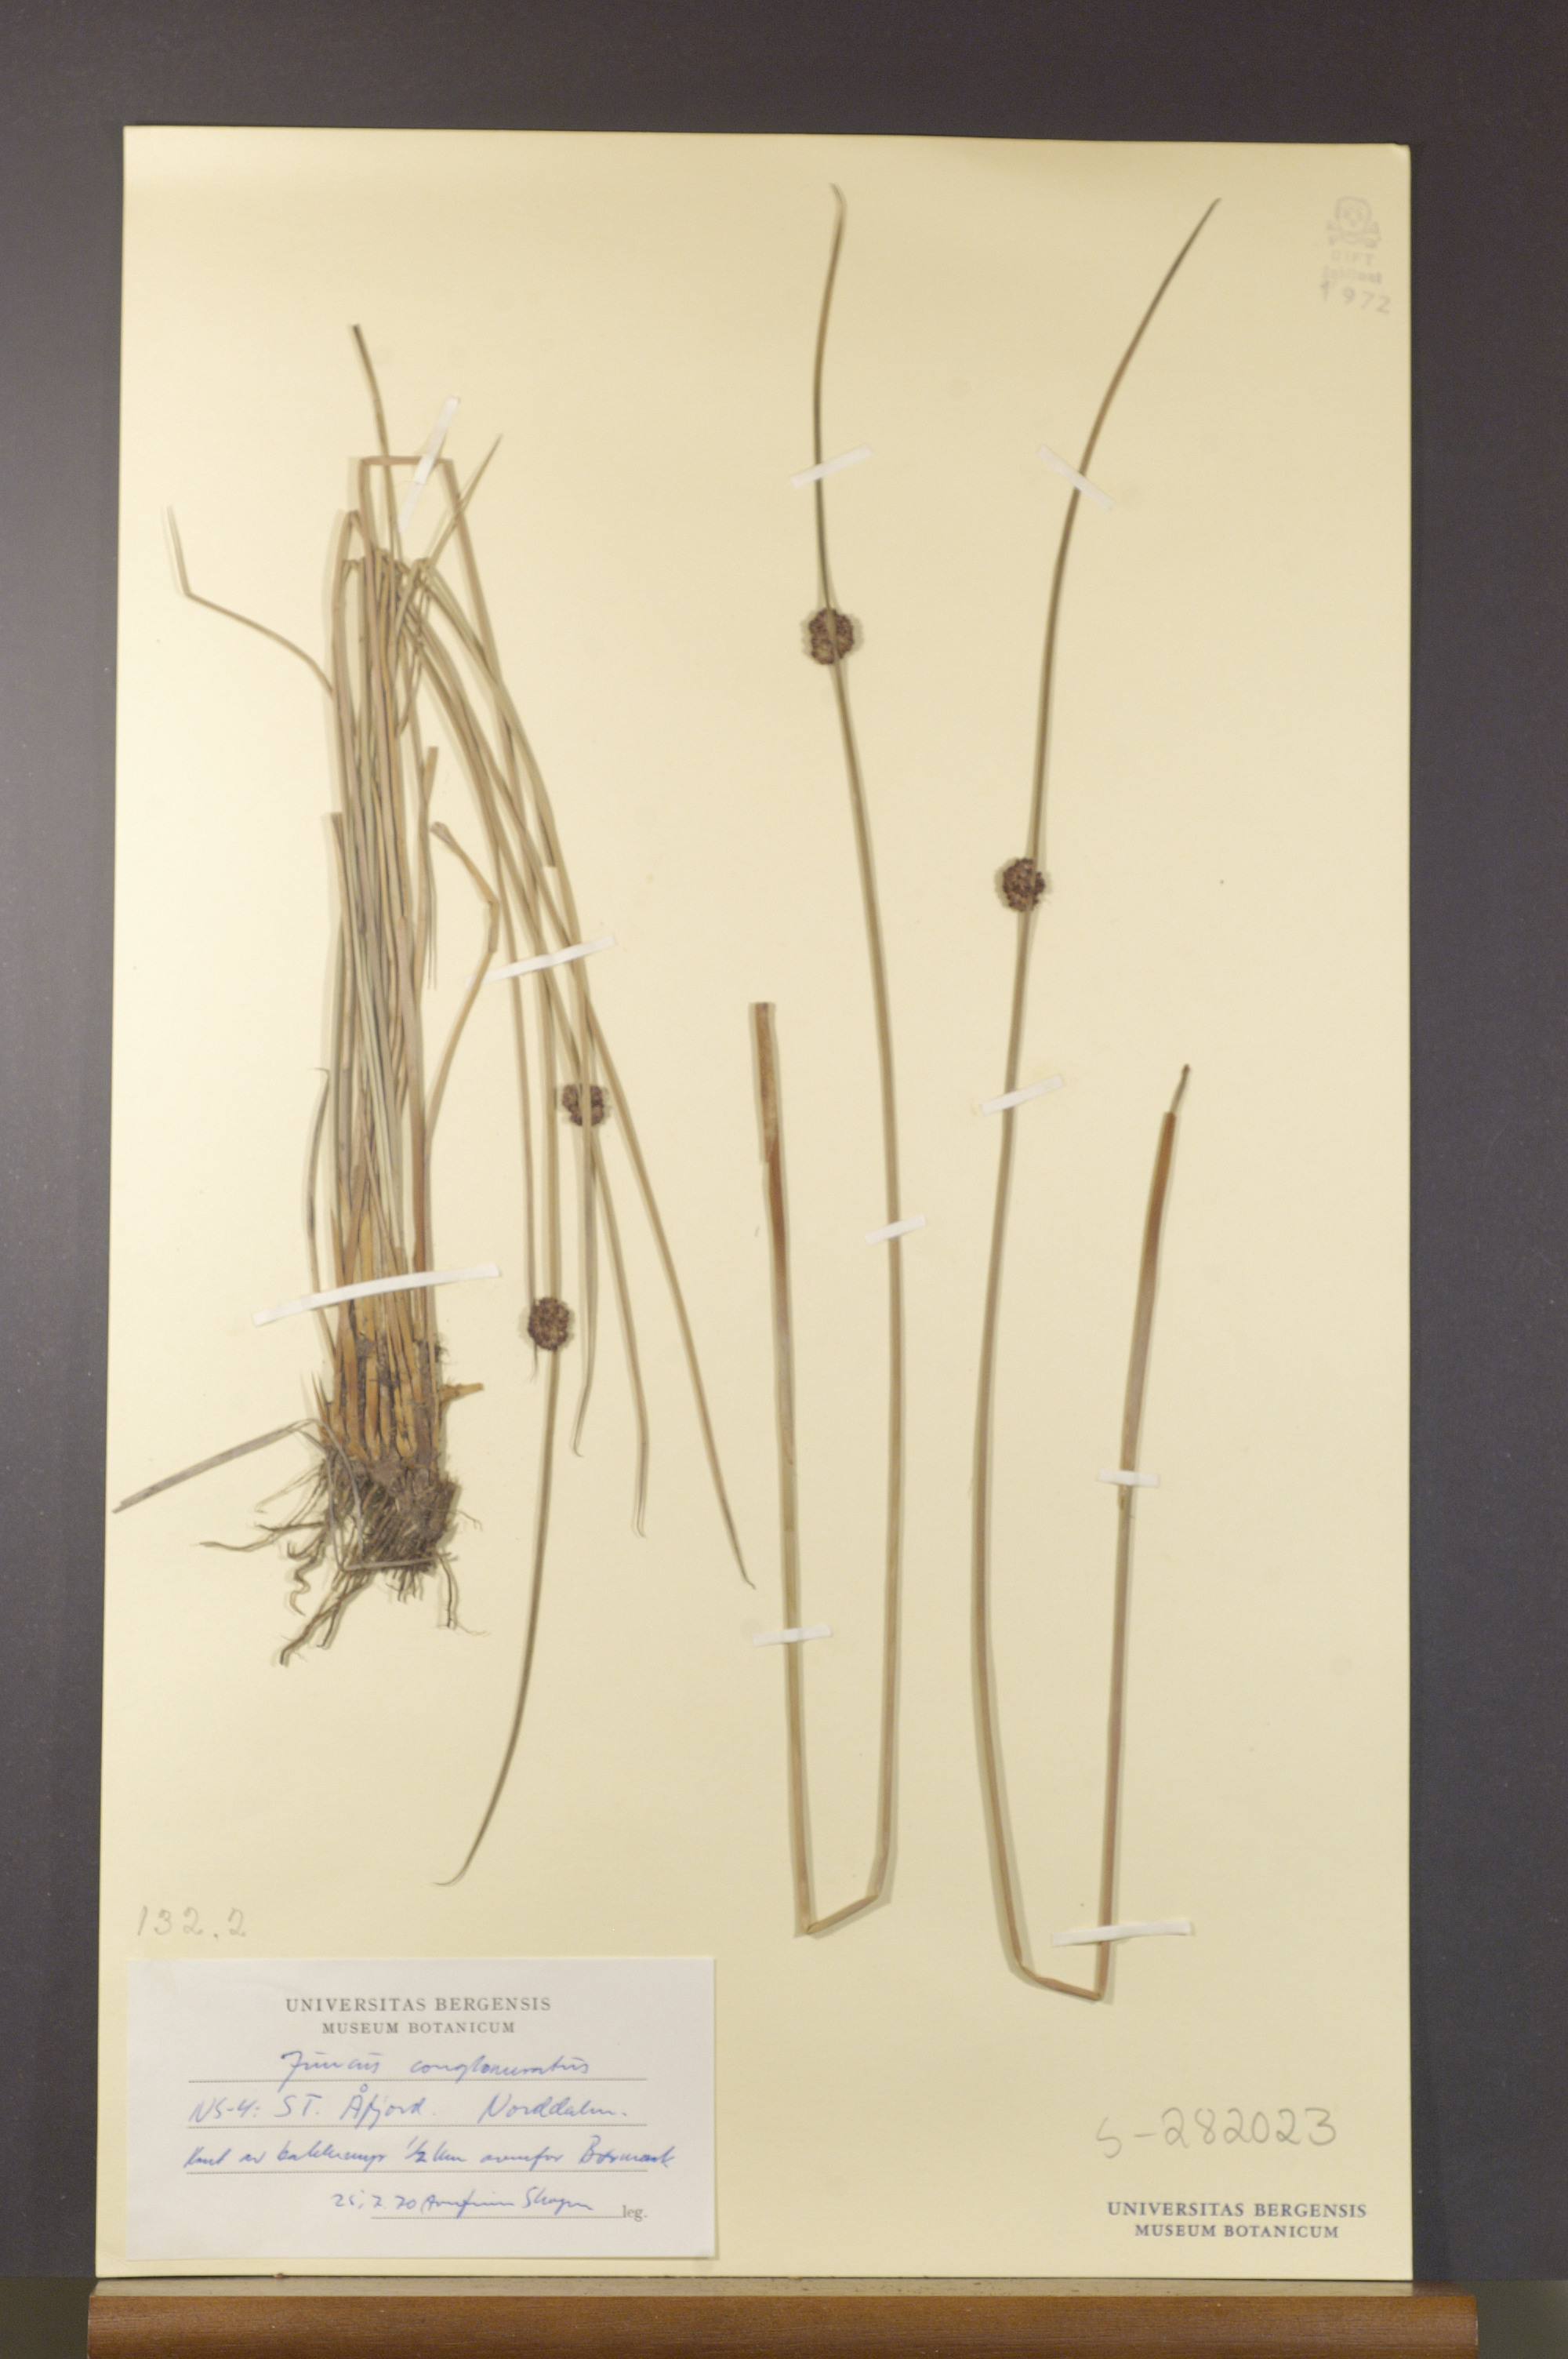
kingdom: Plantae
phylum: Tracheophyta
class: Liliopsida
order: Poales
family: Juncaceae
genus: Juncus
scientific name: Juncus conglomeratus
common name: Compact rush
